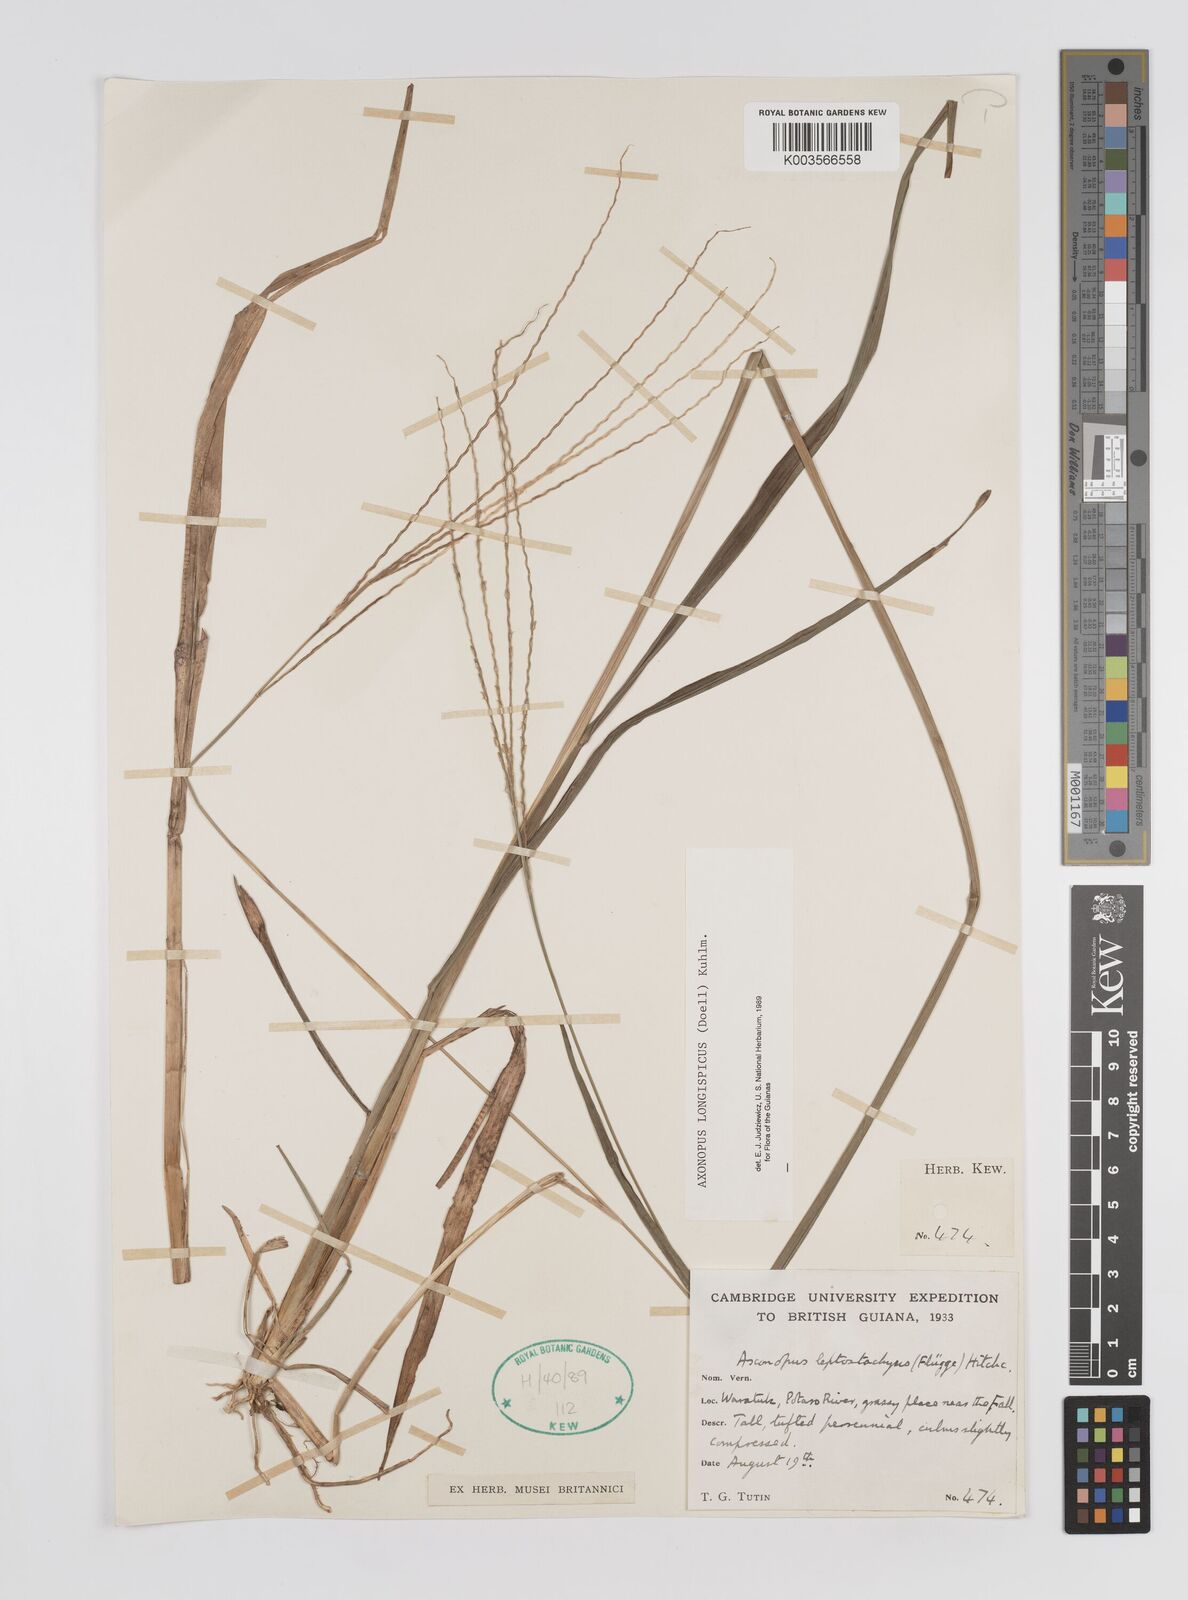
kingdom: Plantae
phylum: Tracheophyta
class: Liliopsida
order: Poales
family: Poaceae
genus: Axonopus
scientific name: Axonopus longispicus
